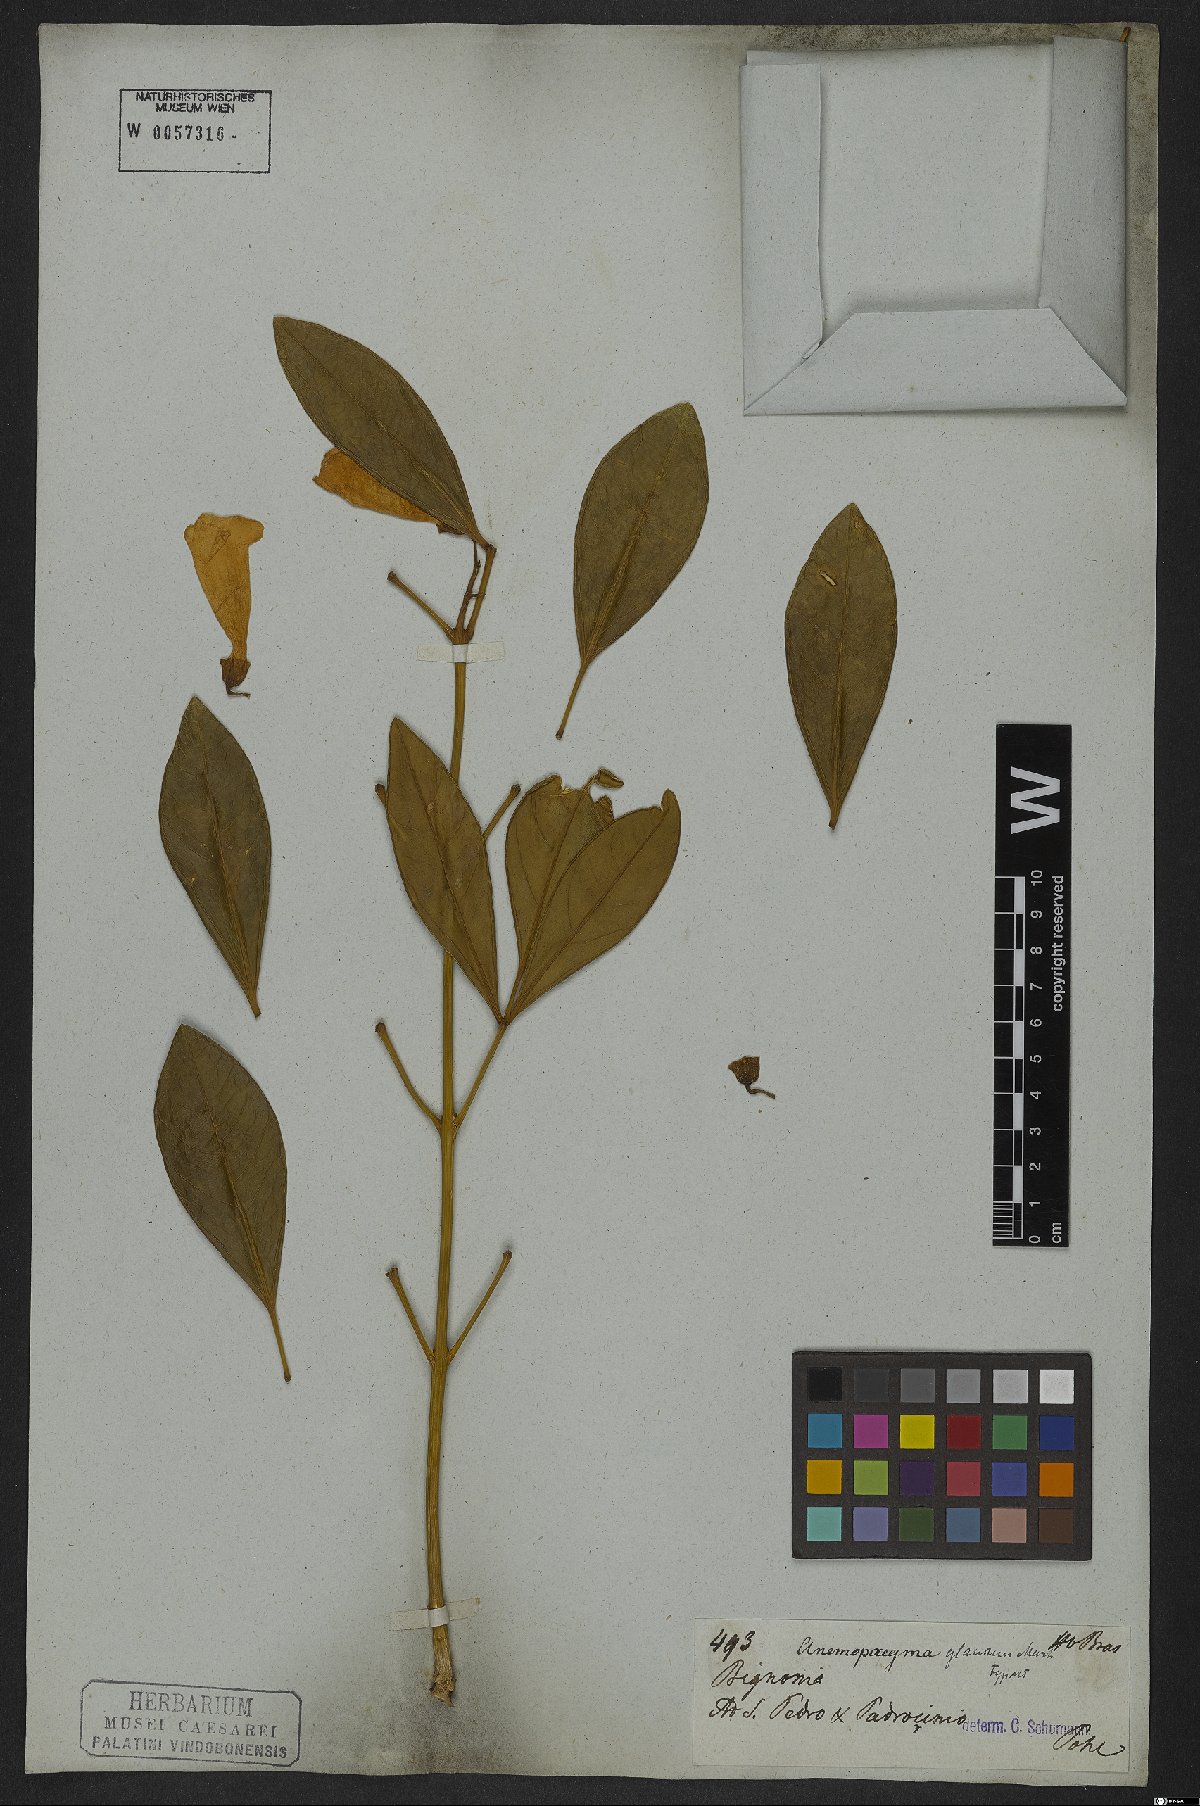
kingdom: Plantae
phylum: Tracheophyta
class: Magnoliopsida
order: Lamiales
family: Bignoniaceae
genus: Anemopaegma
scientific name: Anemopaegma glaucum
